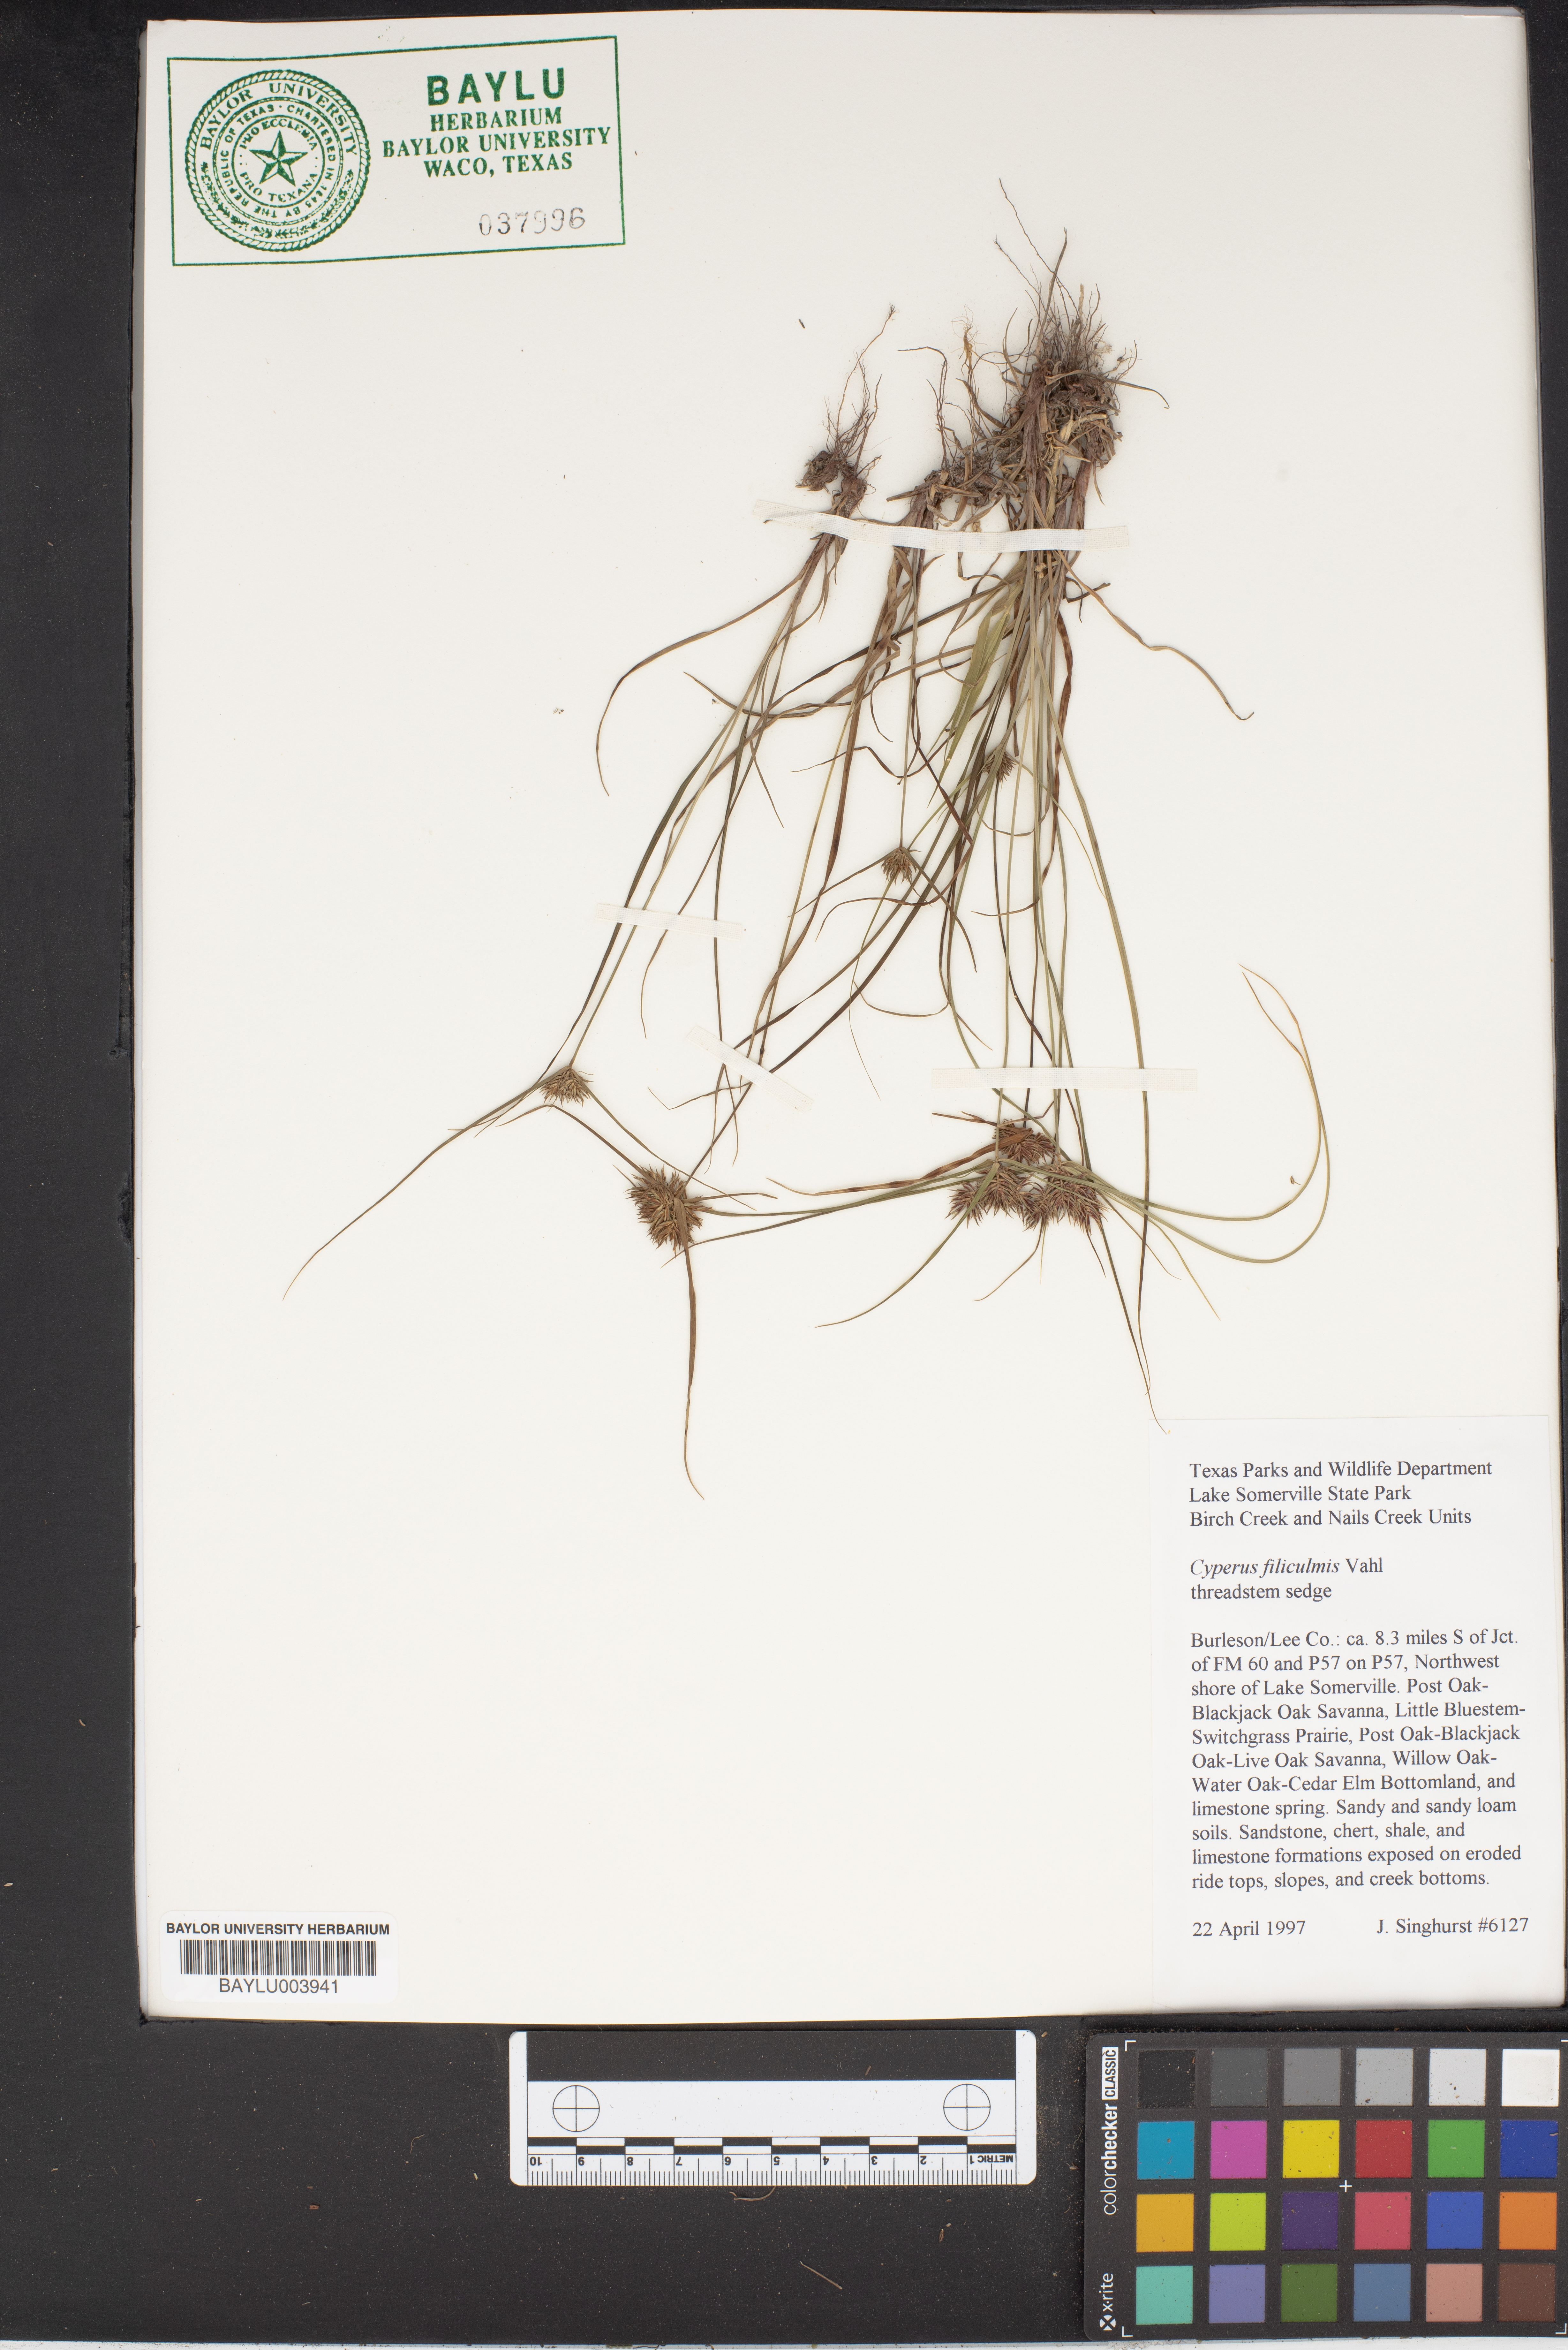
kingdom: Plantae
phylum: Tracheophyta
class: Liliopsida
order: Poales
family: Cyperaceae
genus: Cyperus
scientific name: Cyperus lanceolatus
